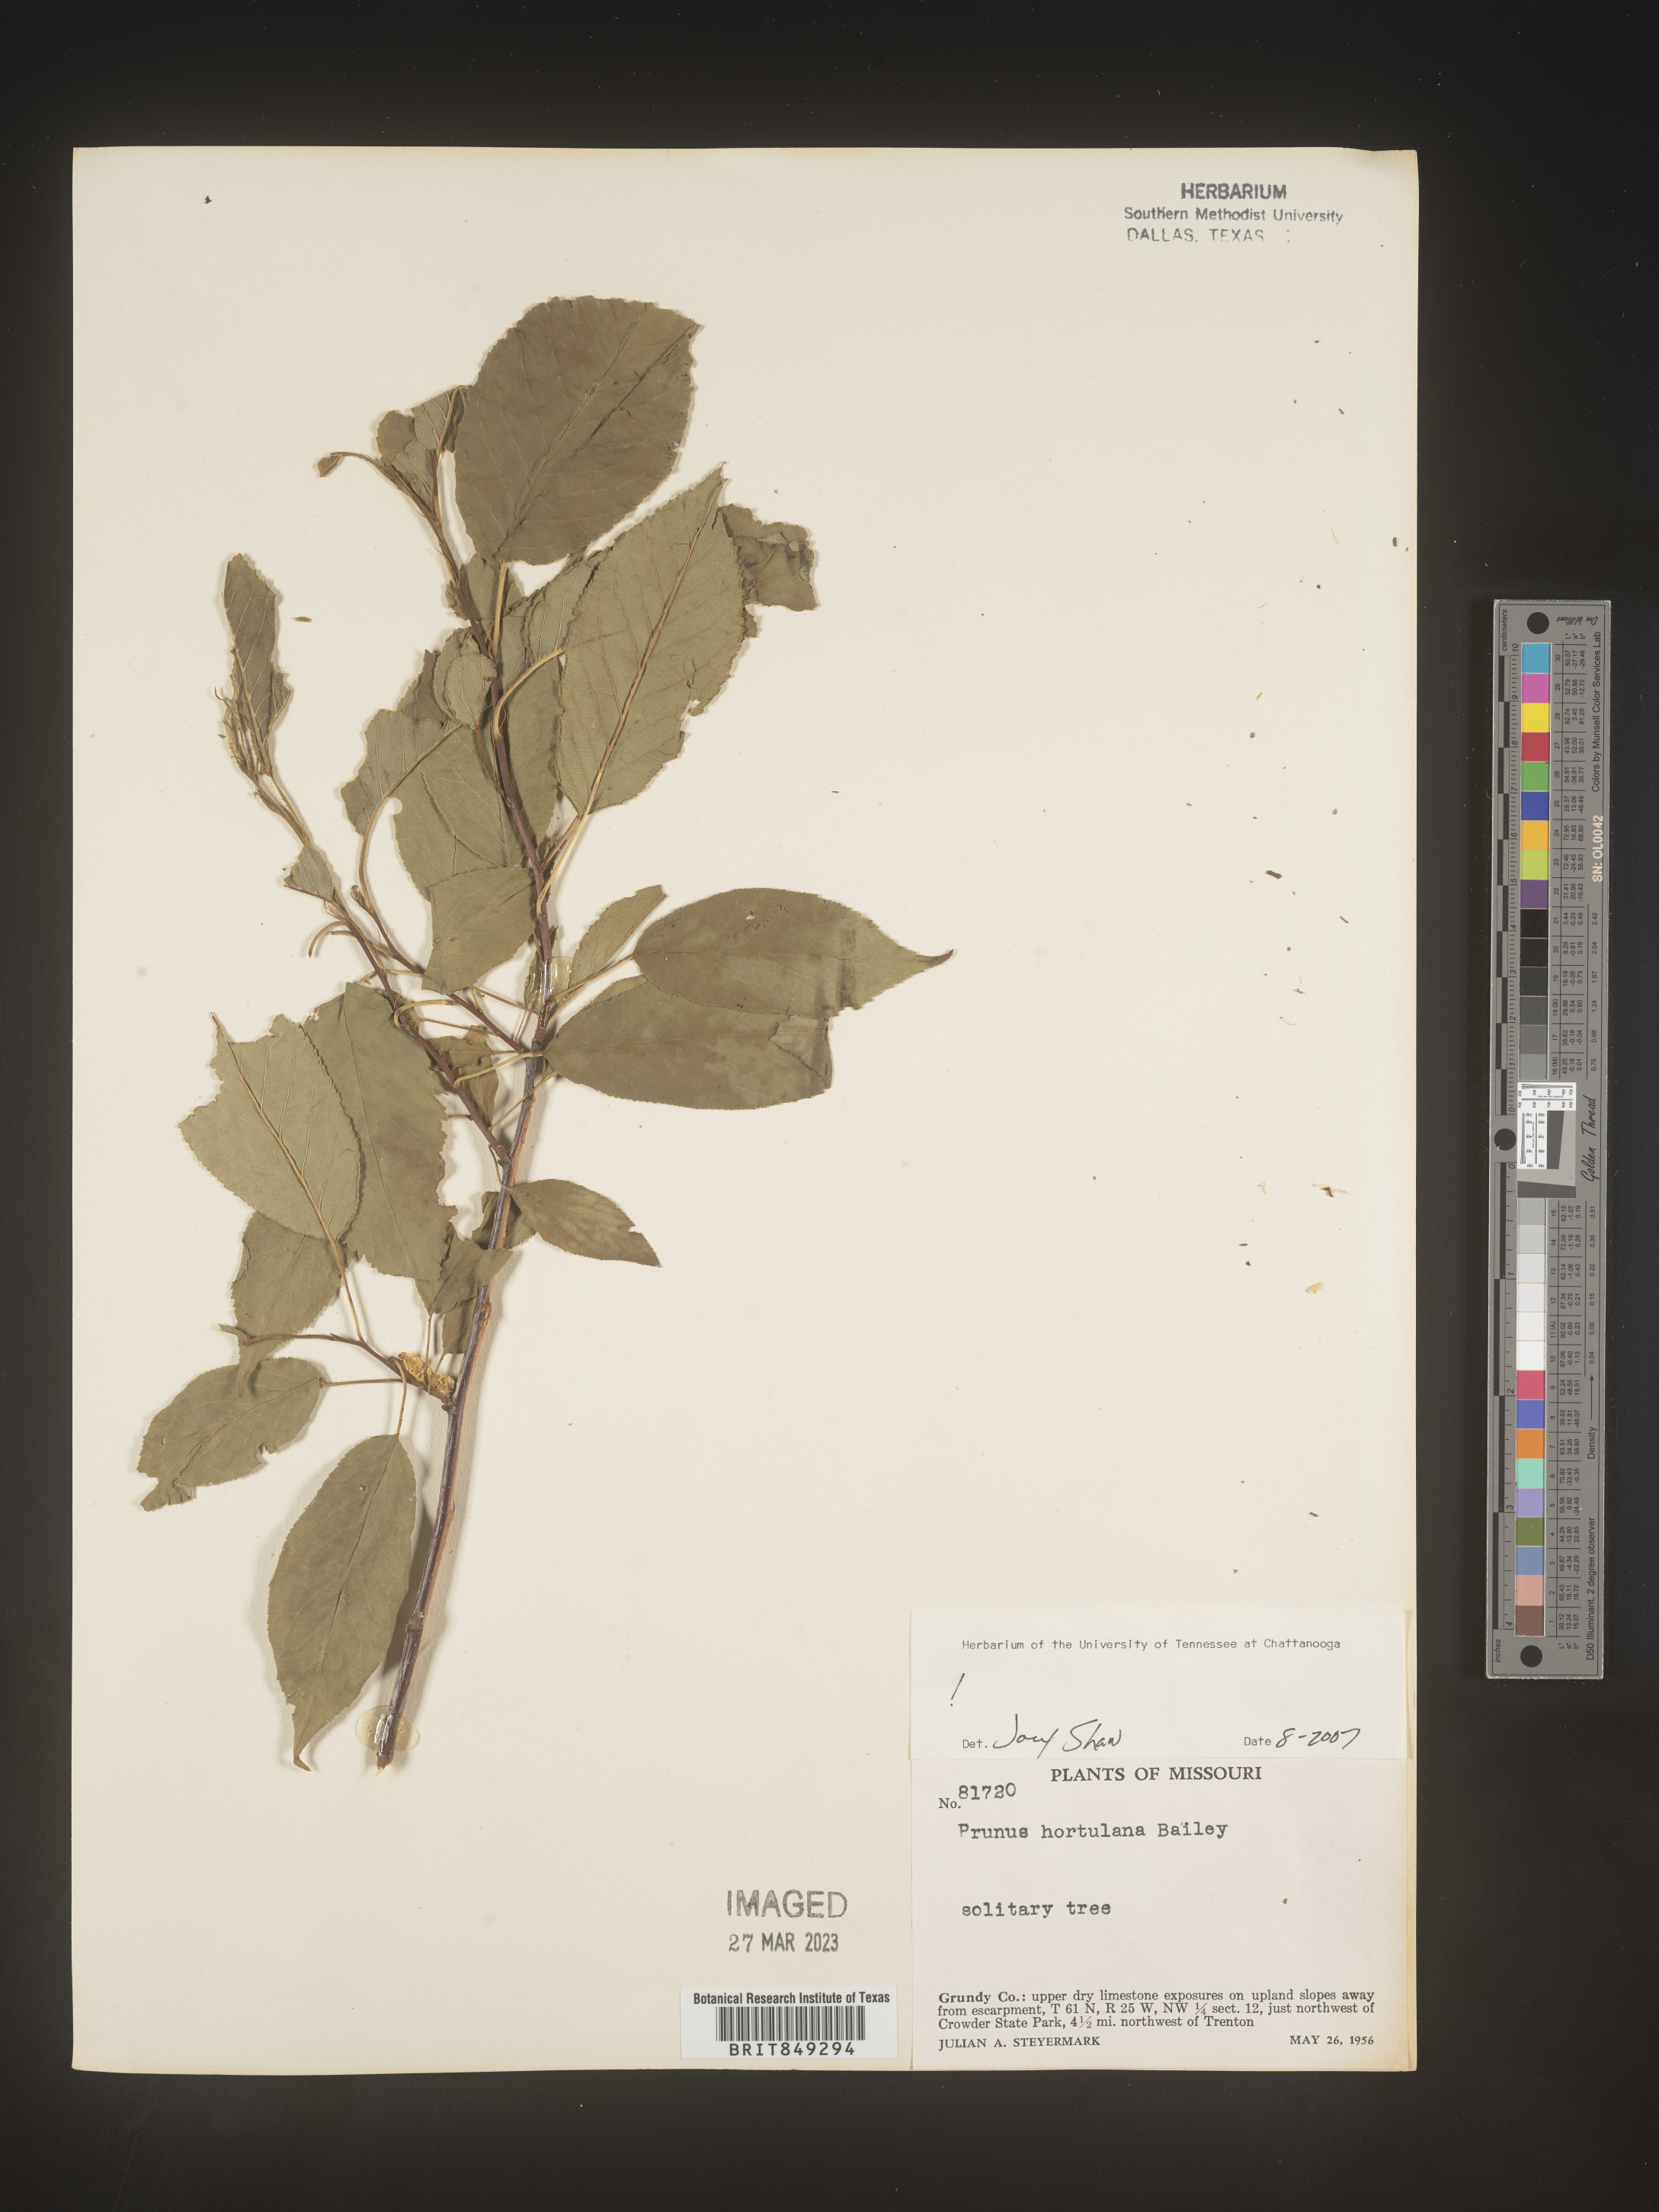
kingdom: Plantae
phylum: Tracheophyta
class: Magnoliopsida
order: Rosales
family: Rosaceae
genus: Prunus
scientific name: Prunus hortulana
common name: Hortulan plum
